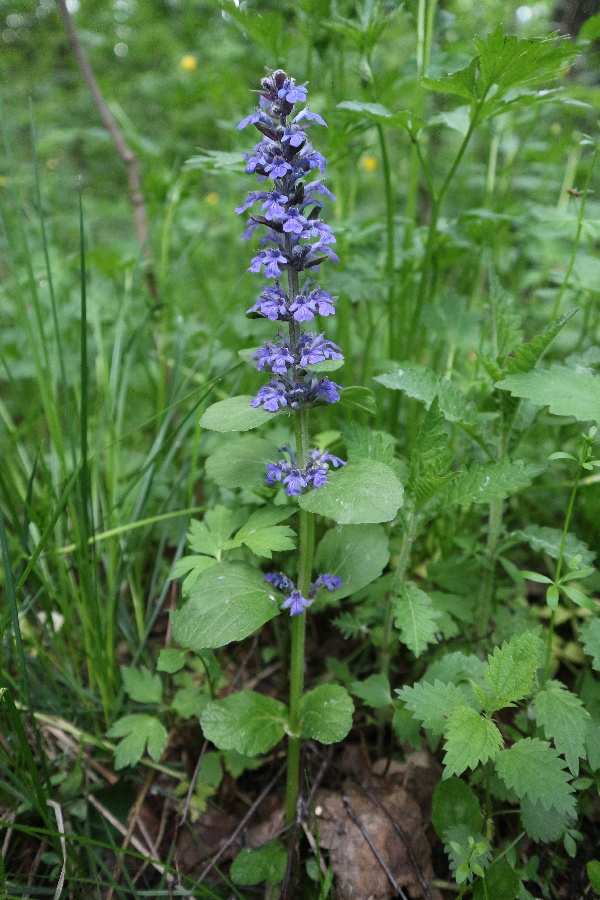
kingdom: Plantae
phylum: Tracheophyta
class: Magnoliopsida
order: Lamiales
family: Lamiaceae
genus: Ajuga
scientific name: Ajuga reptans
